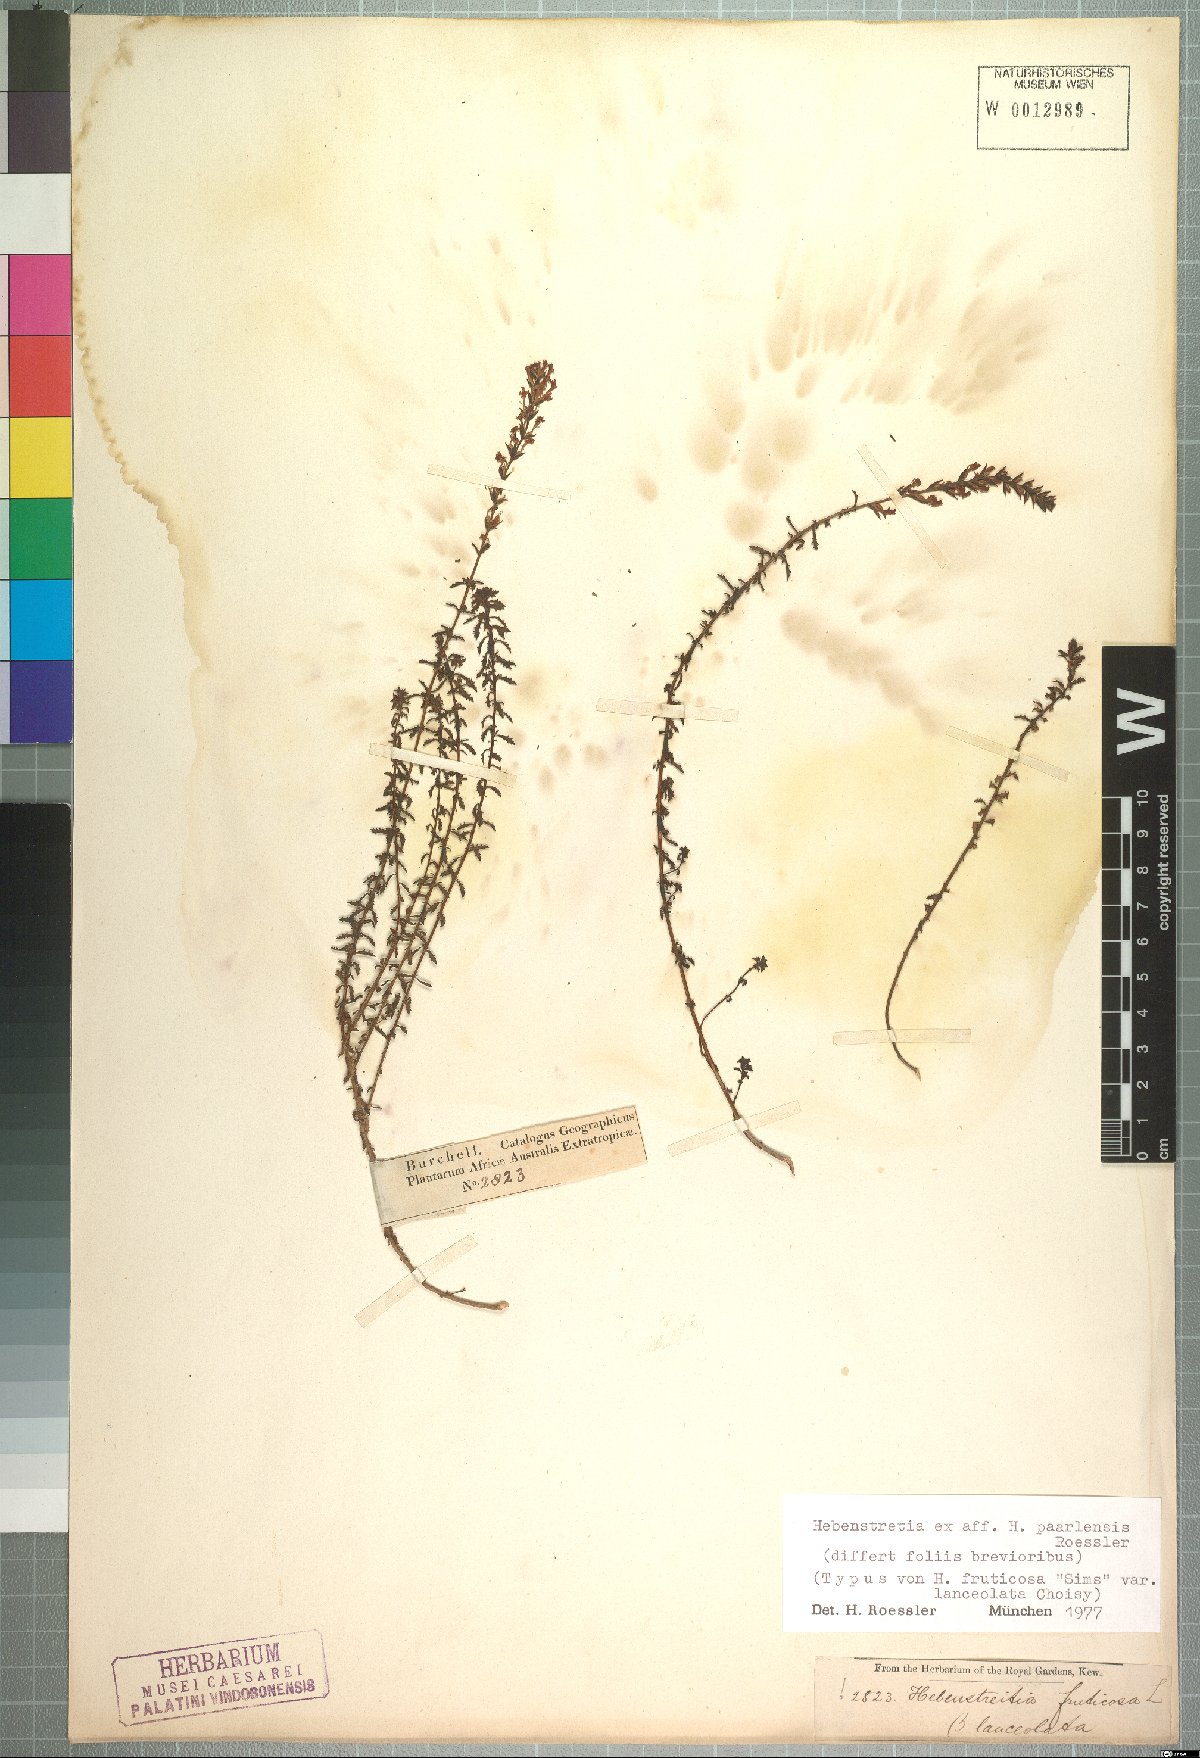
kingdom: Plantae
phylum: Tracheophyta
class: Magnoliopsida
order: Lamiales
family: Scrophulariaceae
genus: Hebenstretia
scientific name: Hebenstretia paarlensis
